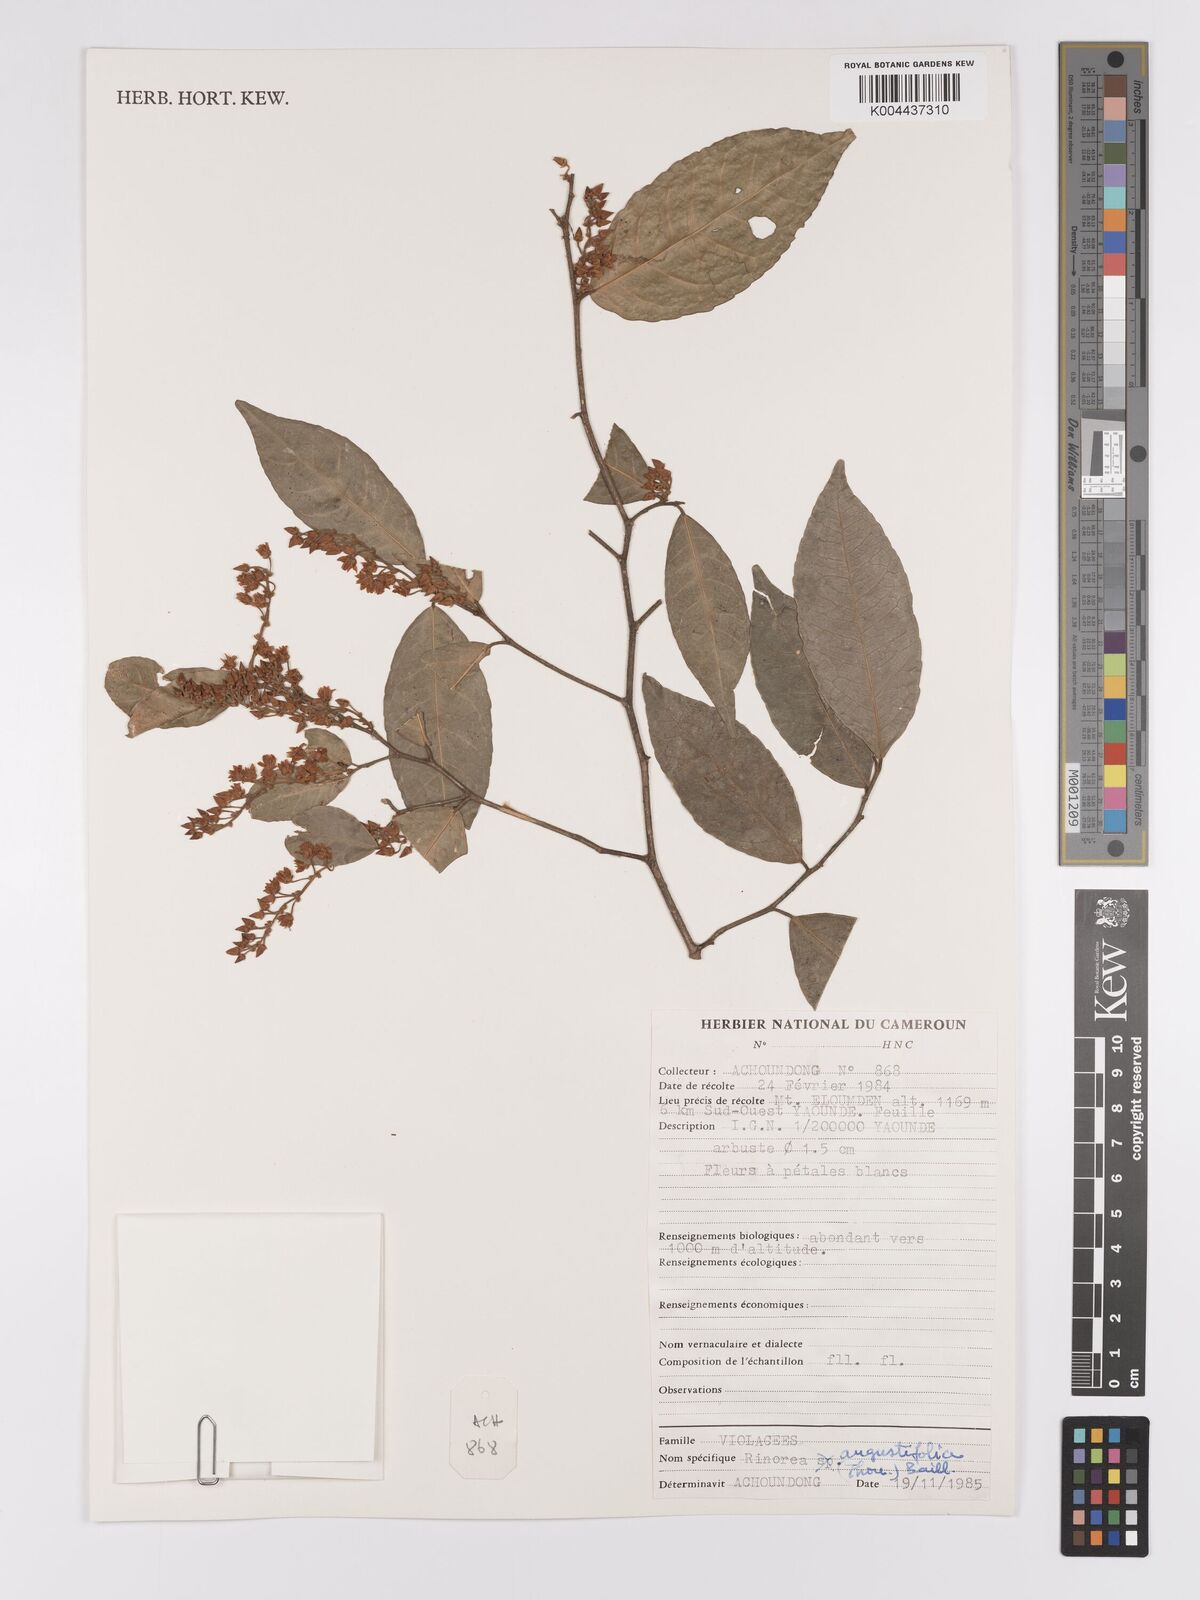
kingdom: Plantae
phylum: Tracheophyta
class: Magnoliopsida
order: Malpighiales
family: Violaceae
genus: Rinorea
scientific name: Rinorea angustifolia
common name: White violet-bush
